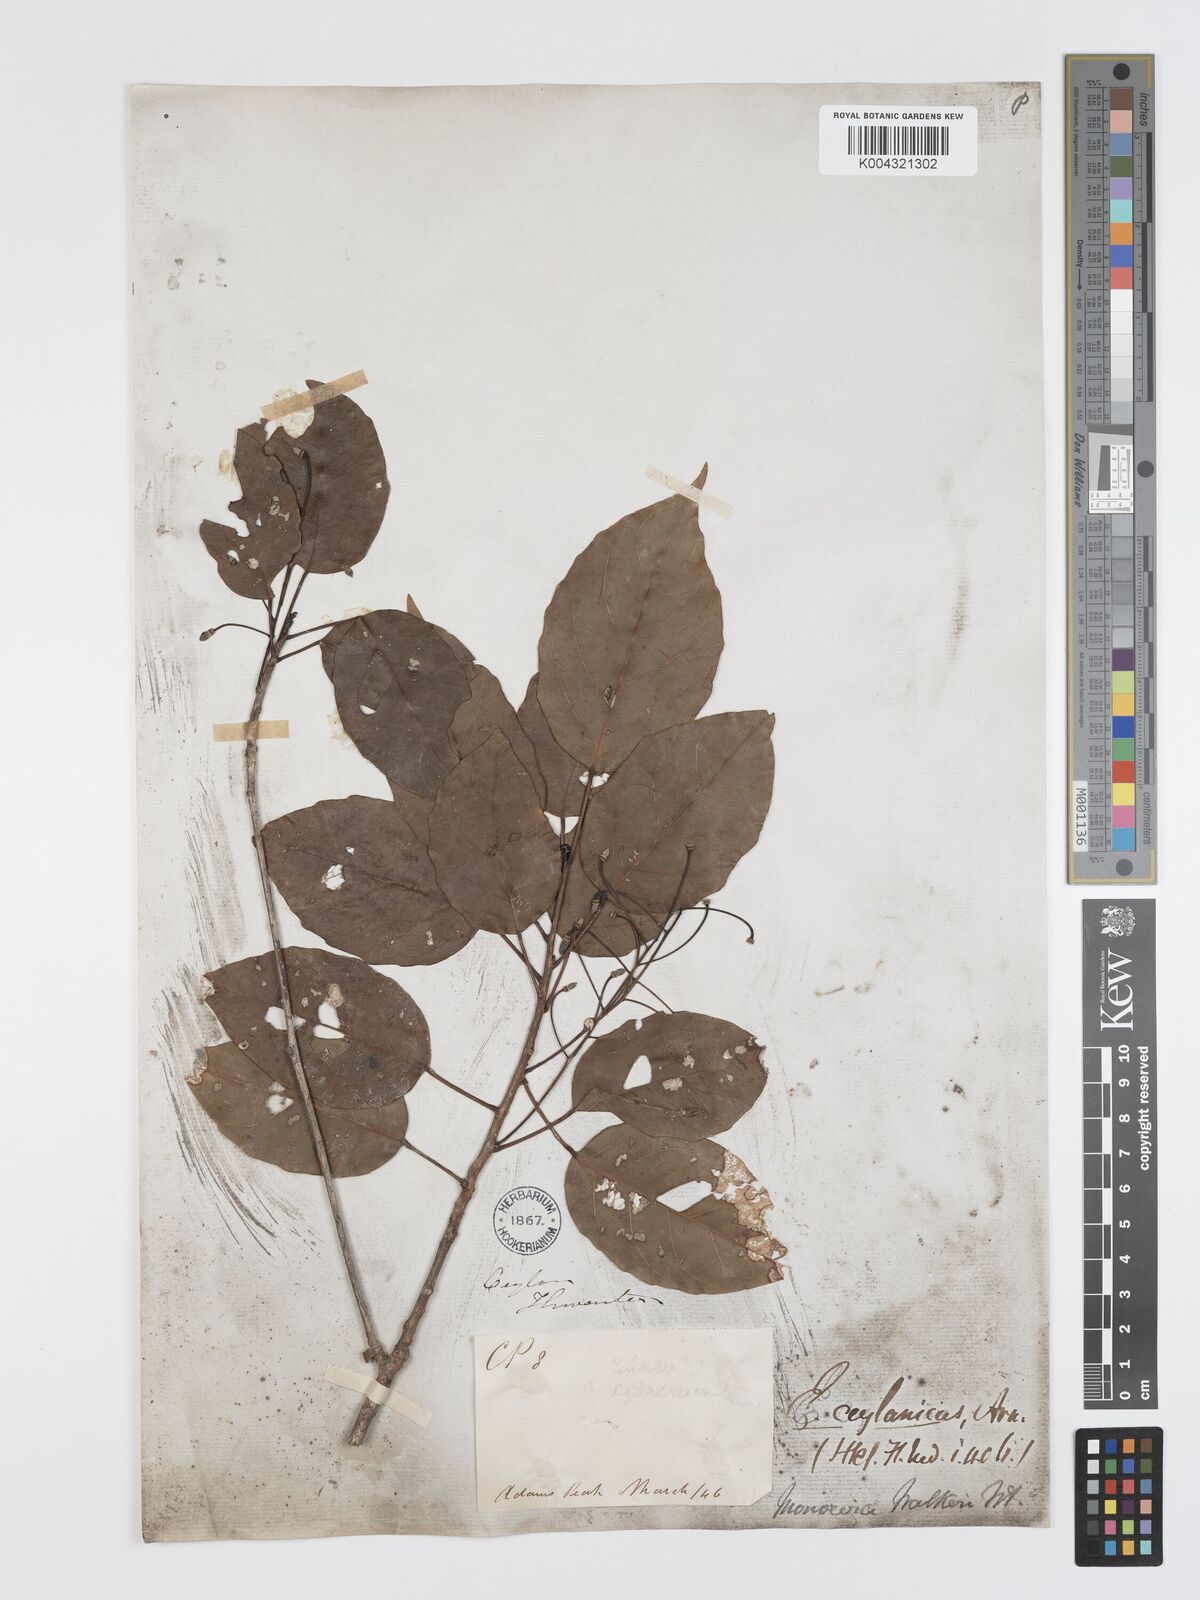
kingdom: Plantae
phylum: Tracheophyta
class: Magnoliopsida
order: Oxalidales
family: Elaeocarpaceae
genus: Elaeocarpus
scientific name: Elaeocarpus ceylanicus
